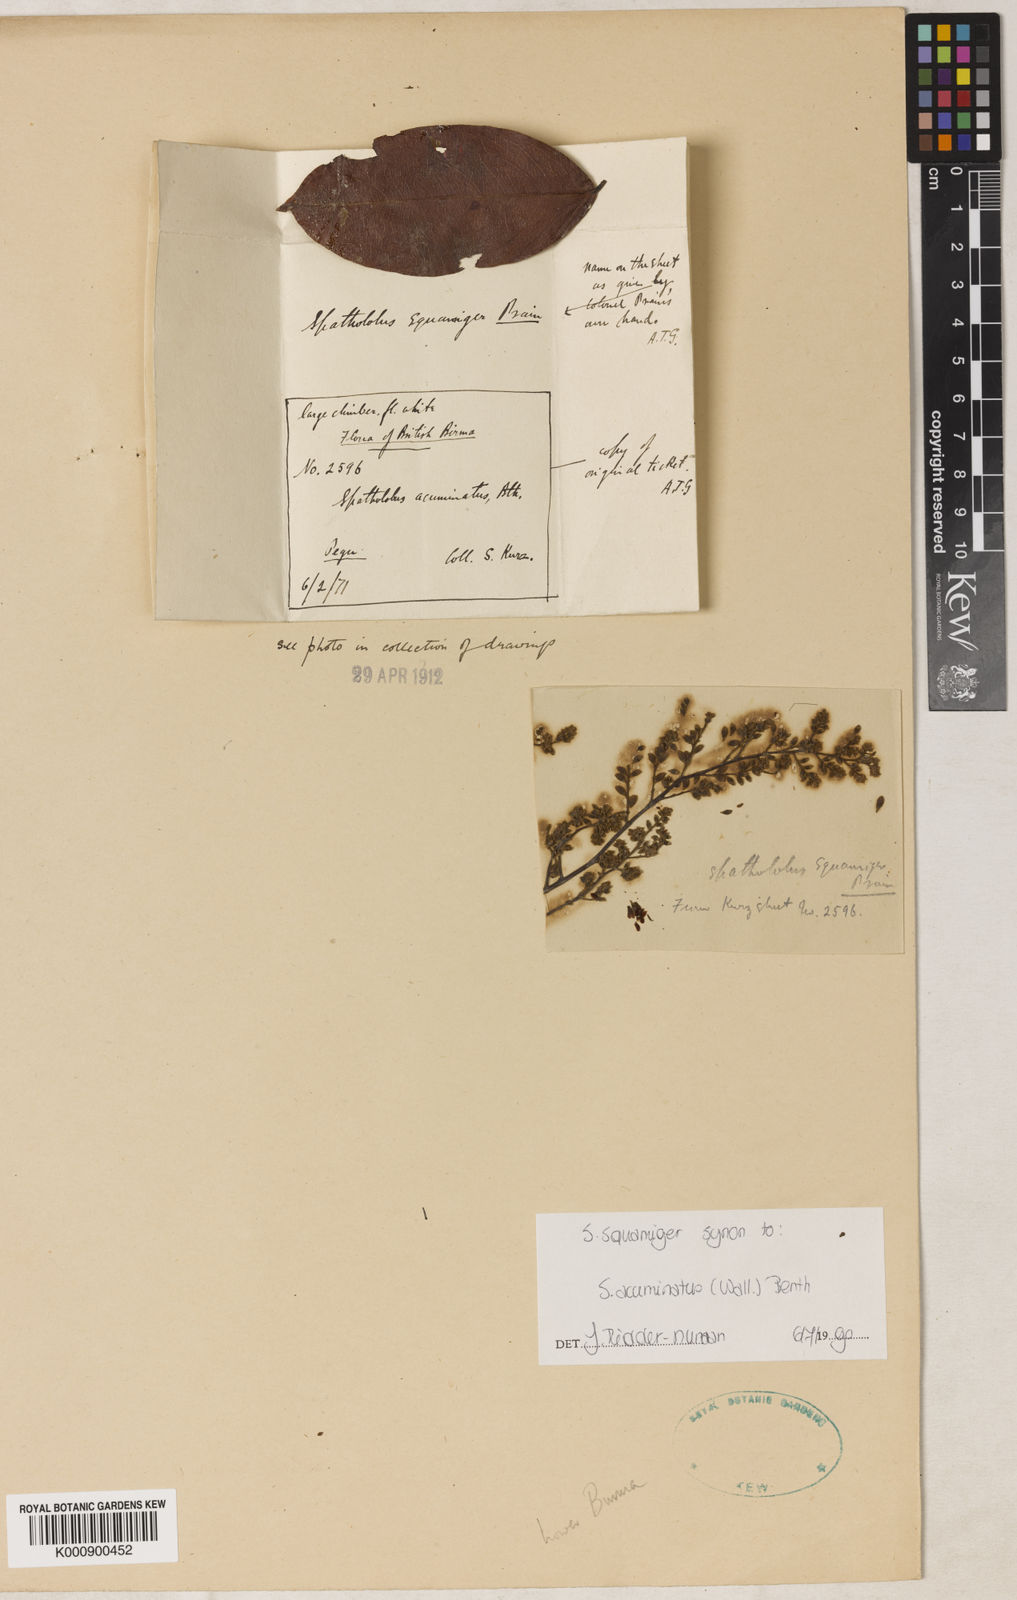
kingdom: Plantae
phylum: Tracheophyta
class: Magnoliopsida
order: Fabales
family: Fabaceae
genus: Spatholobus
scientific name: Spatholobus acuminatus
